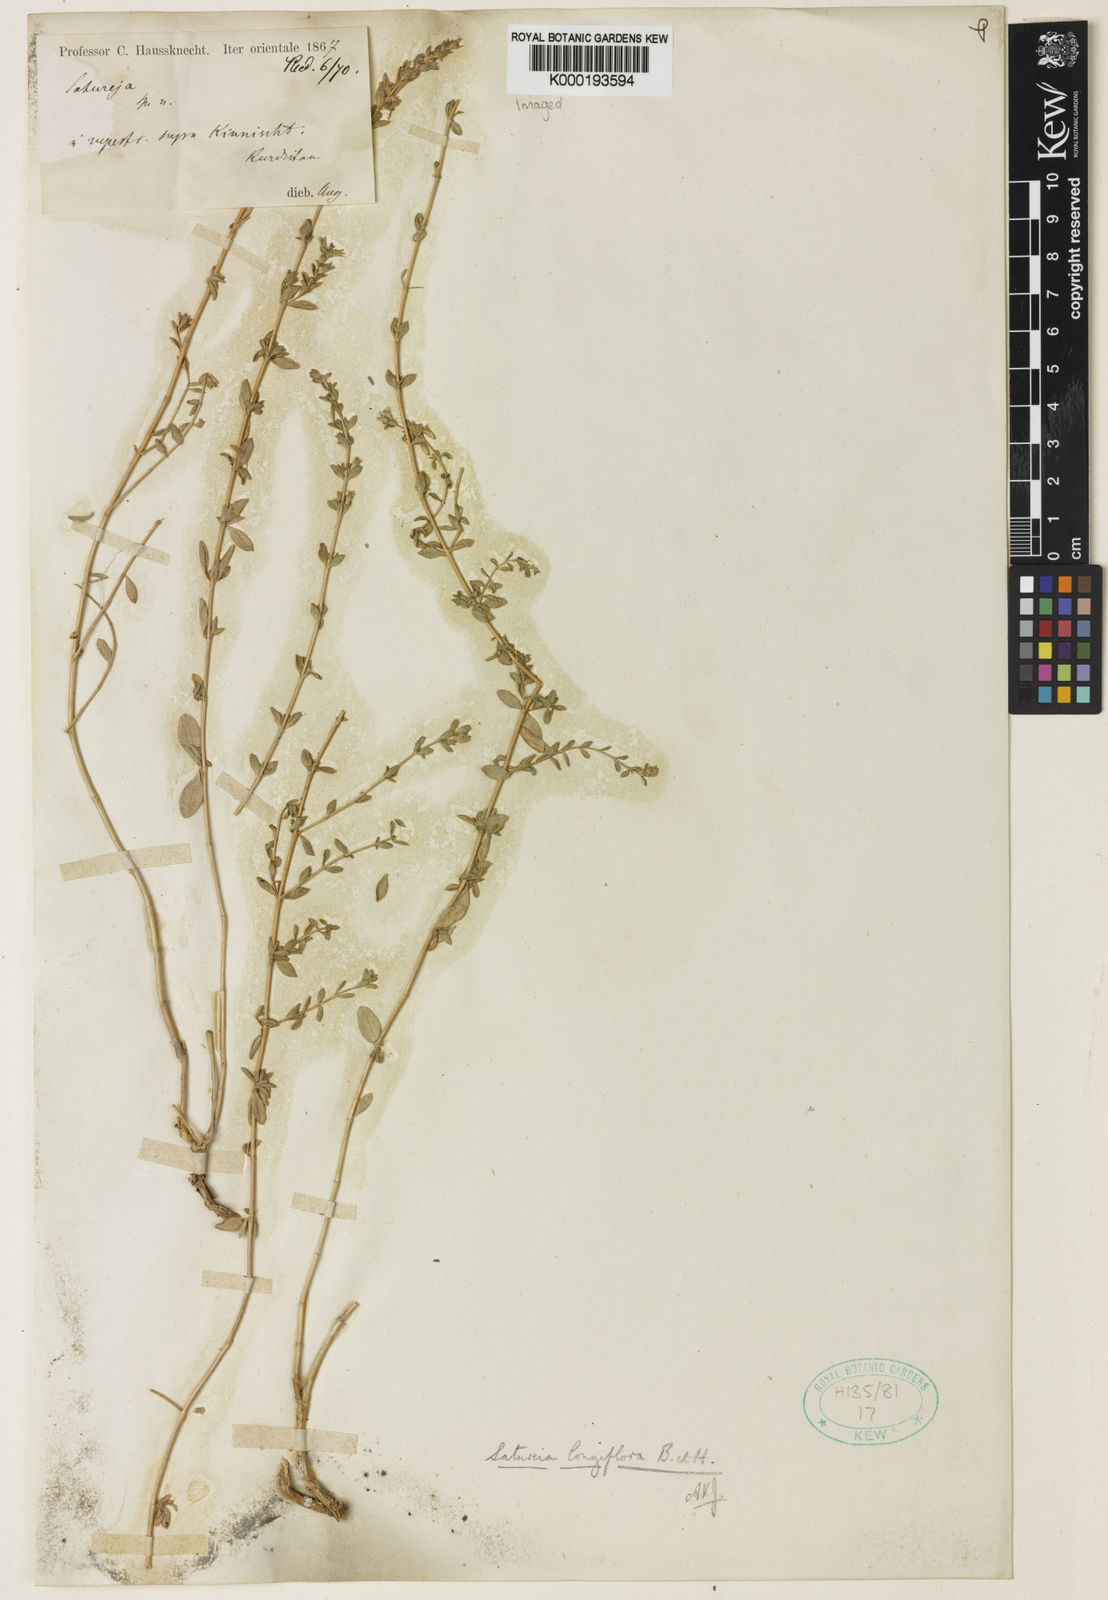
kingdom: Plantae
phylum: Tracheophyta
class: Magnoliopsida
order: Lamiales
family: Lamiaceae
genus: Satureja
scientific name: Satureja edmondii
